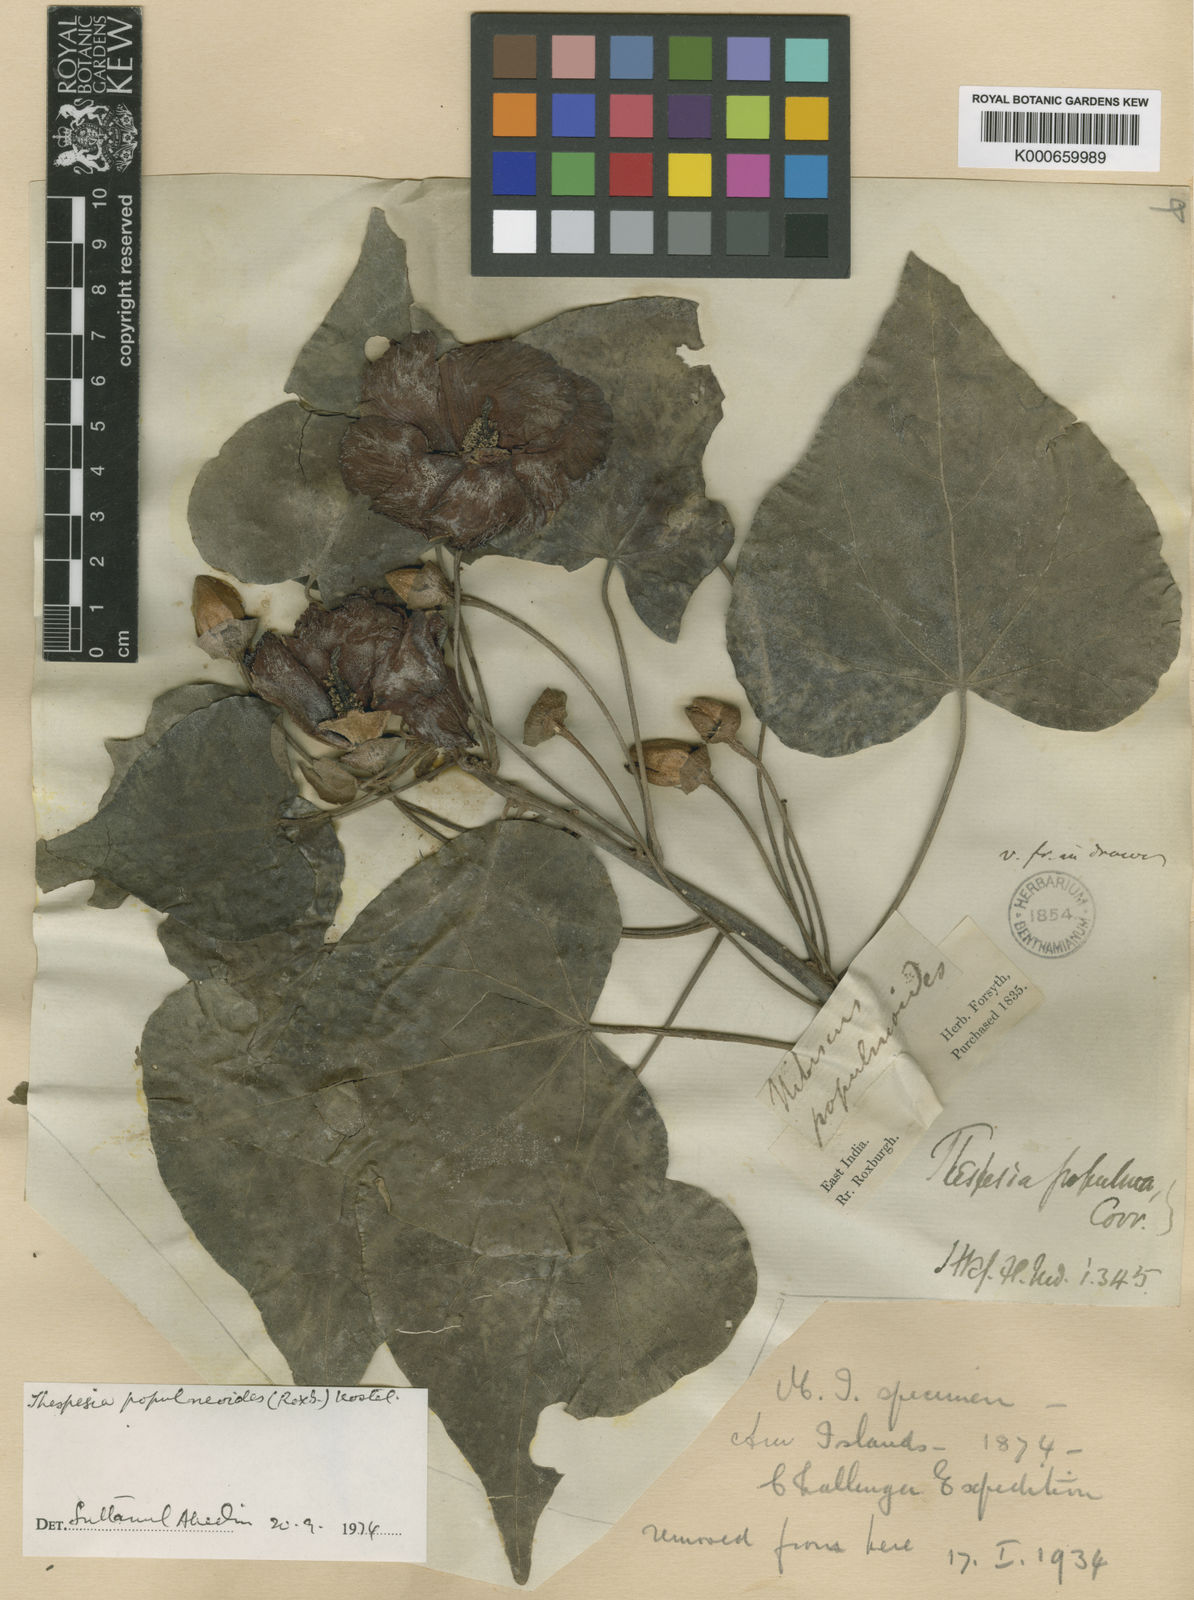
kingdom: Plantae
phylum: Tracheophyta
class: Magnoliopsida
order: Malvales
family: Malvaceae
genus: Thespesia
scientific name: Thespesia
